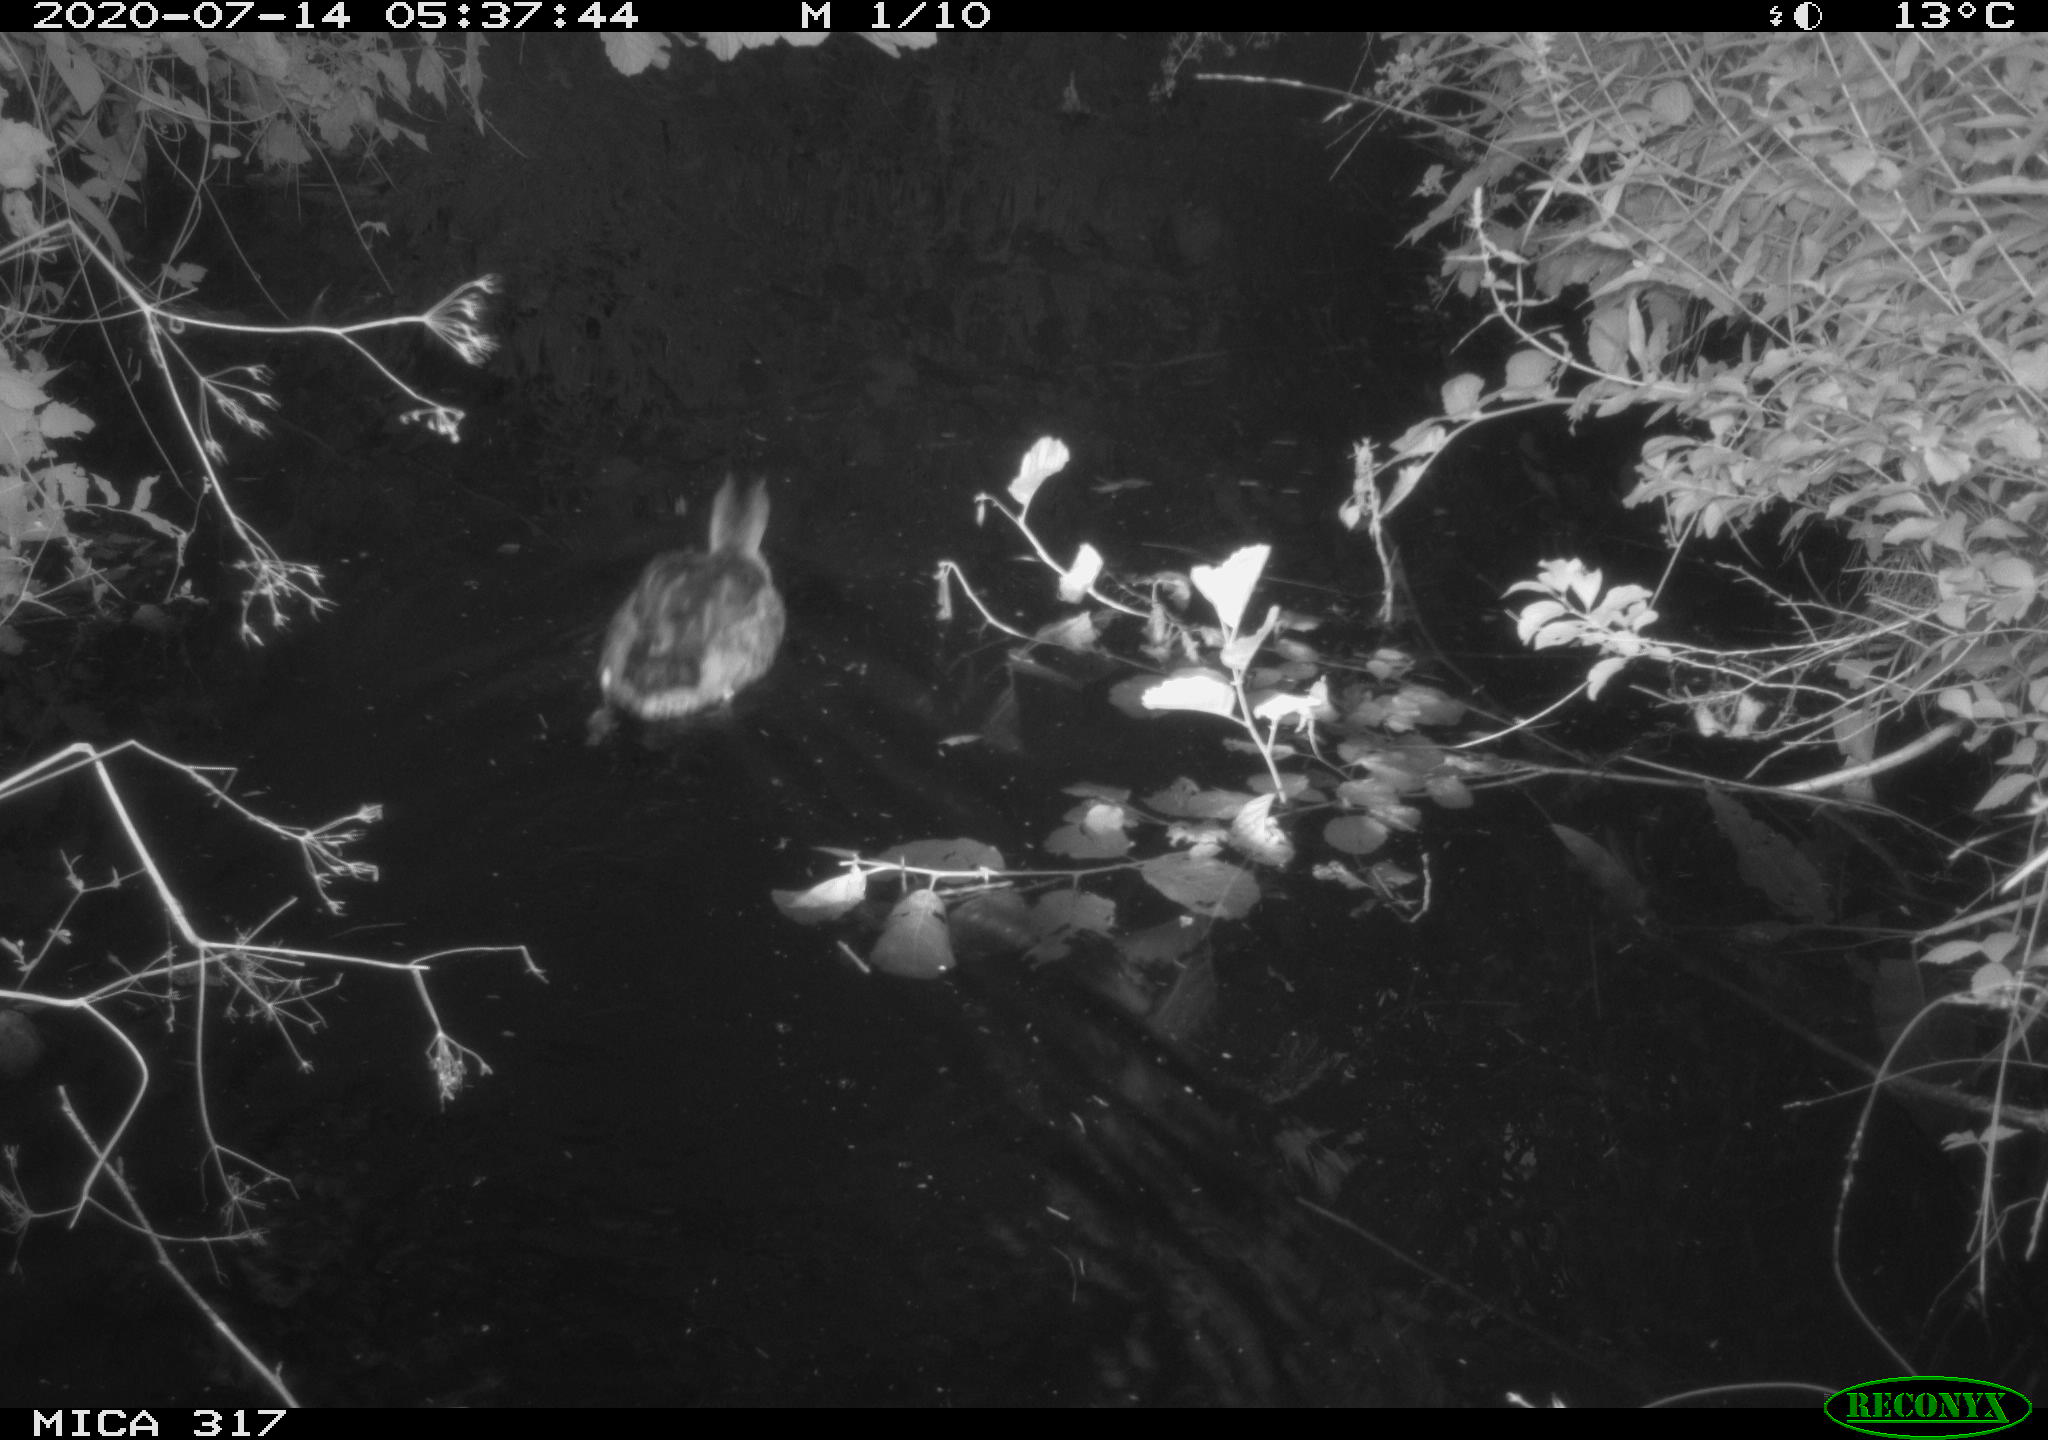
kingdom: Animalia
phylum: Chordata
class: Aves
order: Anseriformes
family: Anatidae
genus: Anas
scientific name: Anas platyrhynchos
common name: Mallard
